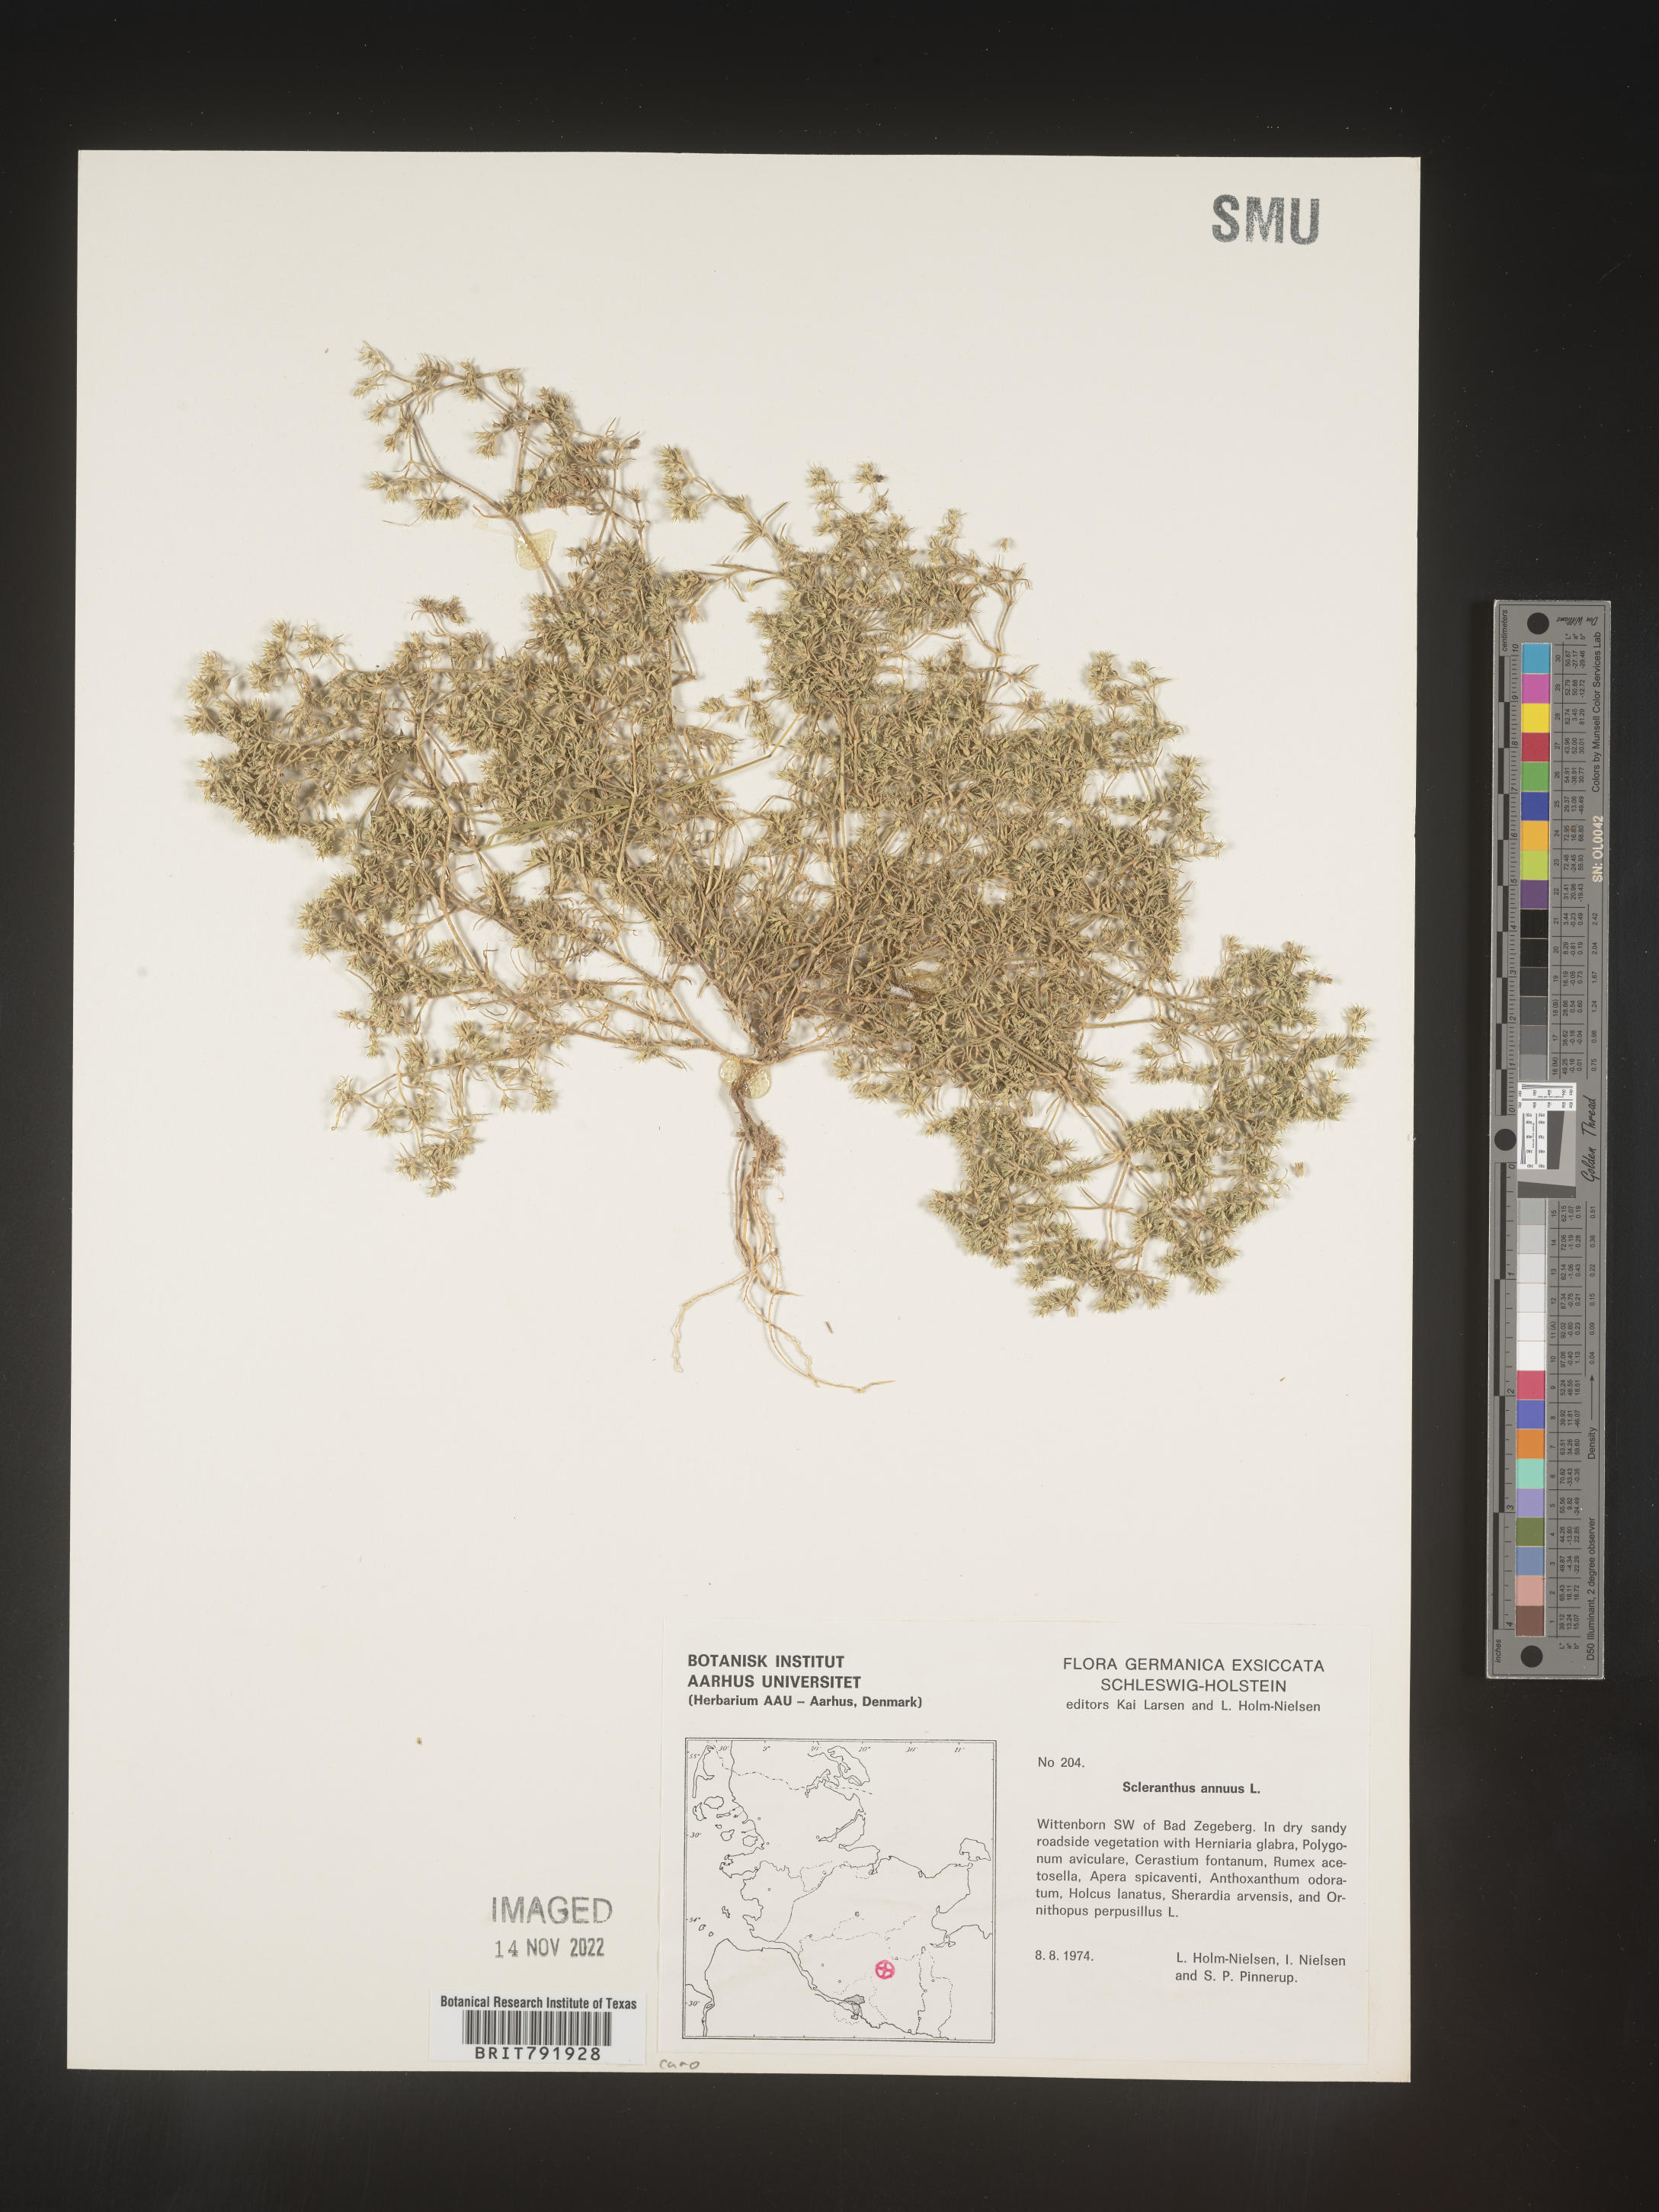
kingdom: Plantae
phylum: Tracheophyta
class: Magnoliopsida
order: Caryophyllales
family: Caryophyllaceae
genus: Scleranthus
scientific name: Scleranthus
